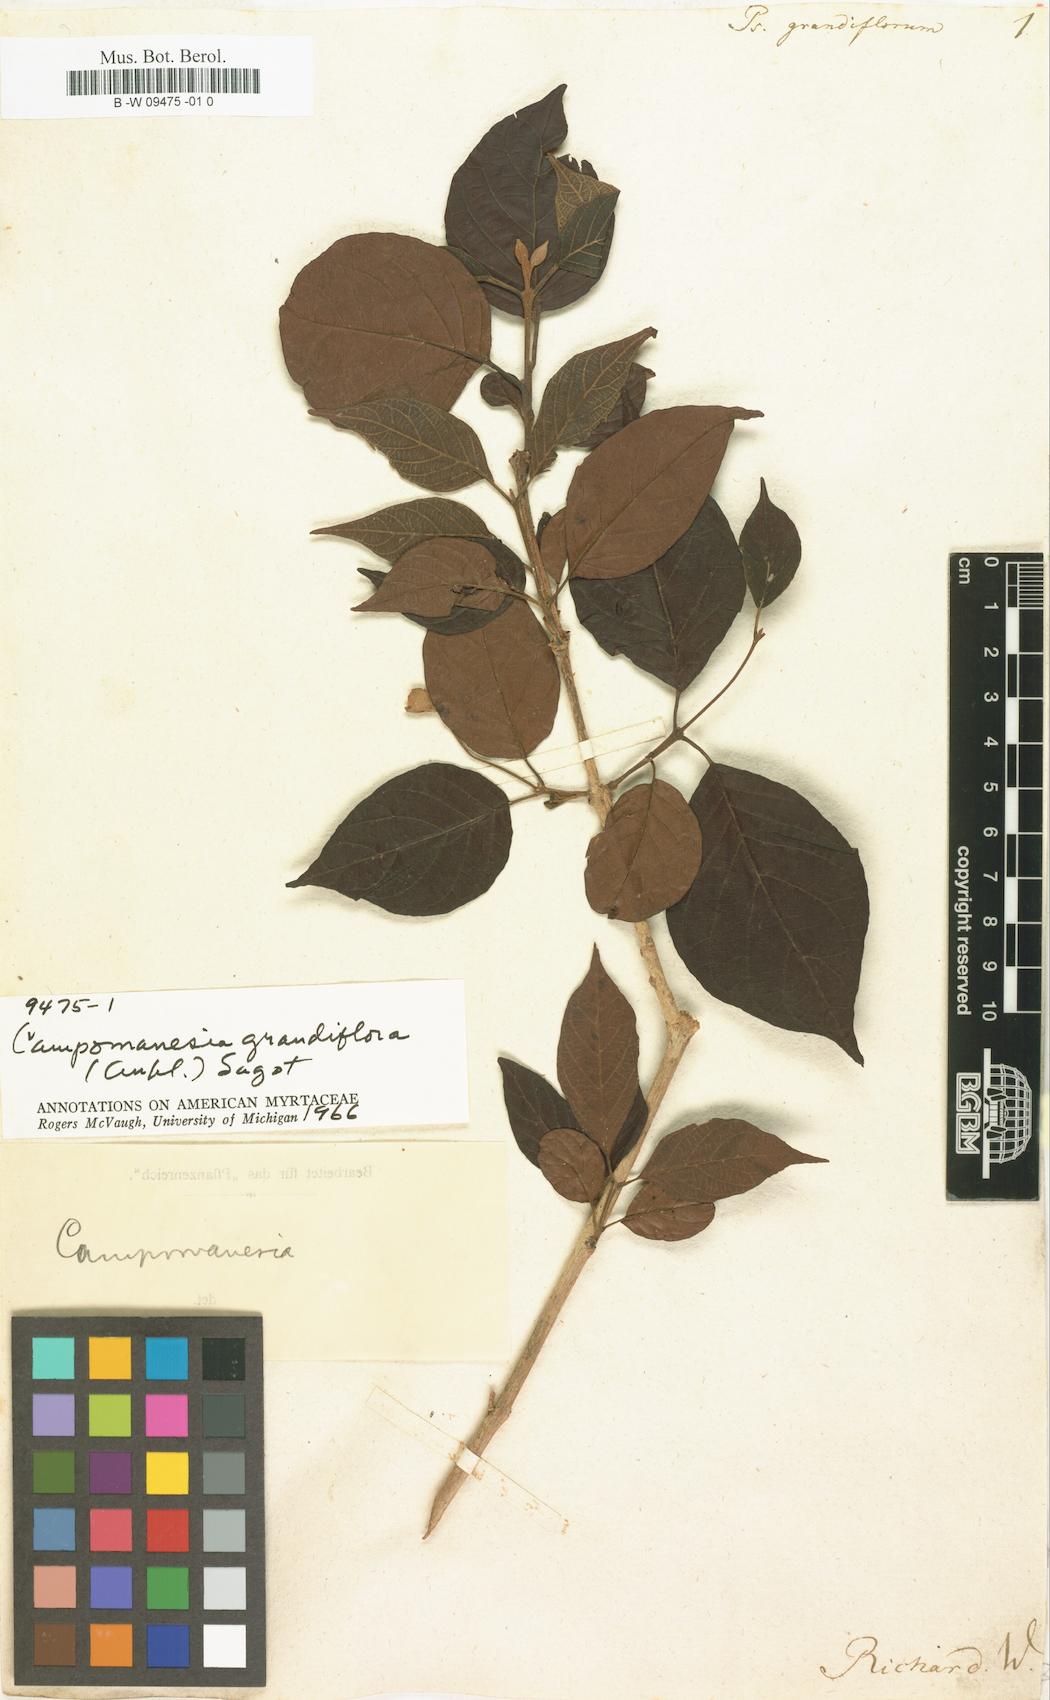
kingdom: Plantae
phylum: Tracheophyta
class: Magnoliopsida
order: Myrtales
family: Myrtaceae
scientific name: Myrtaceae
